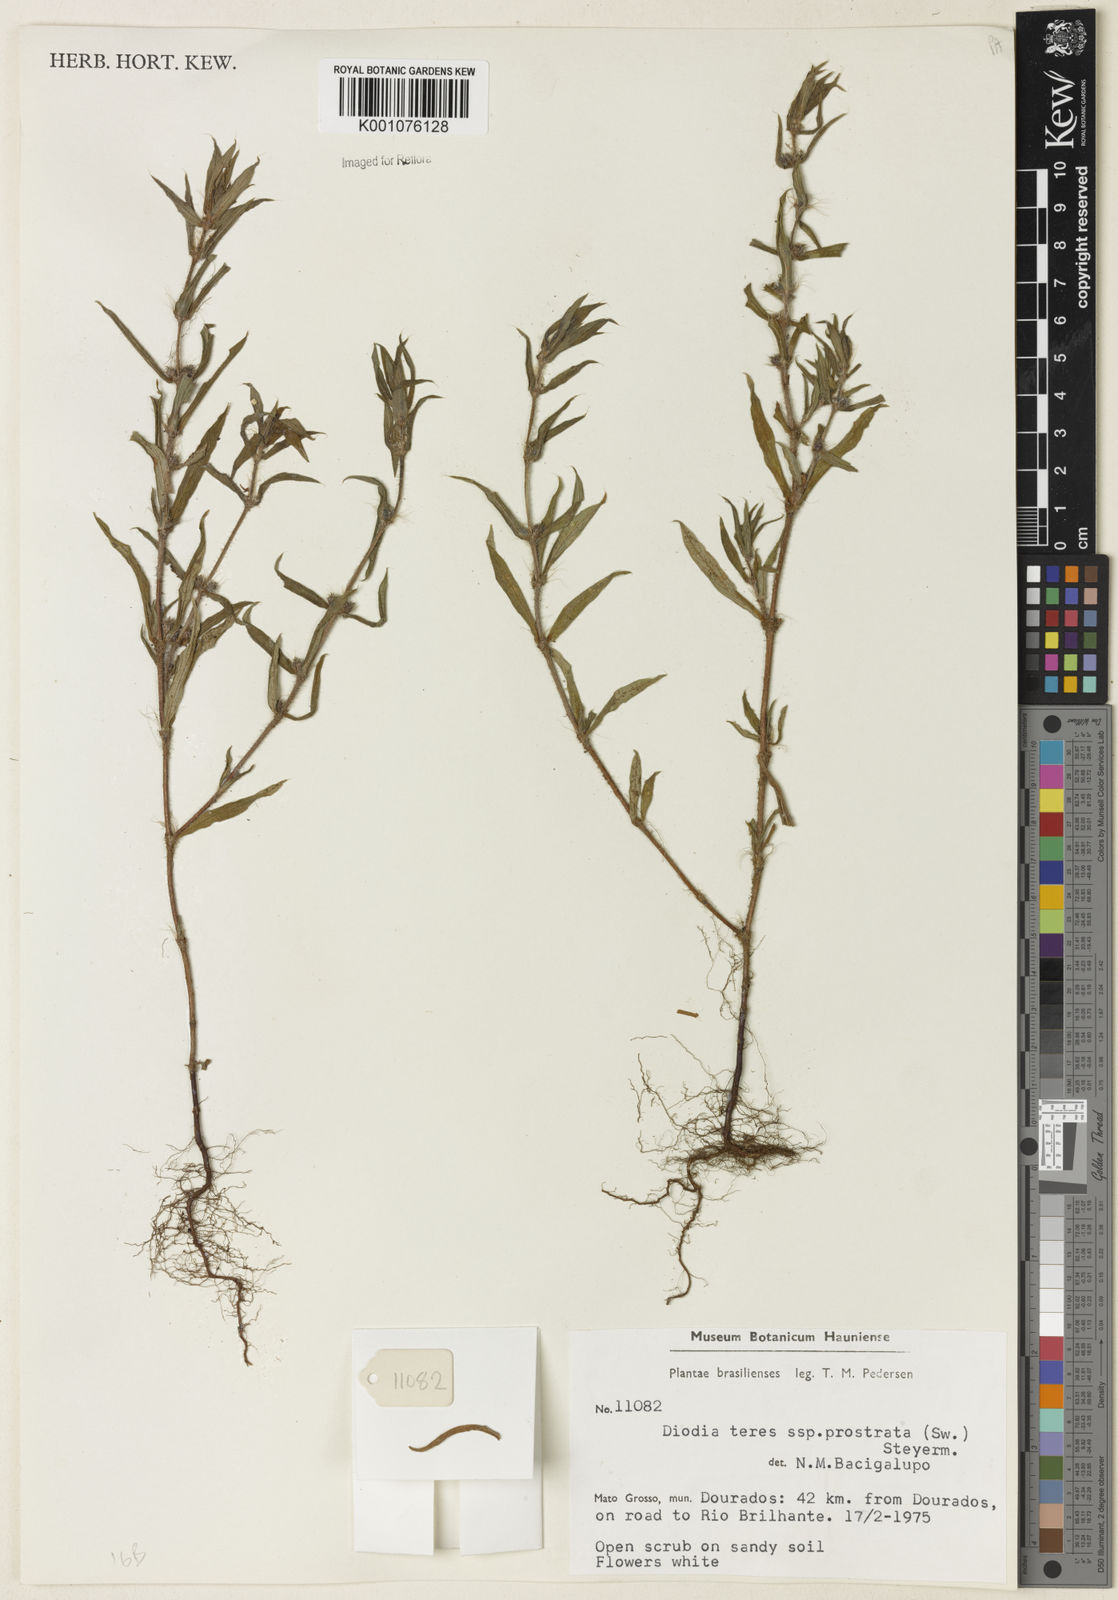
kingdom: Plantae
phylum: Tracheophyta
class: Magnoliopsida
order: Gentianales
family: Rubiaceae
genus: Hexasepalum
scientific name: Hexasepalum teres
